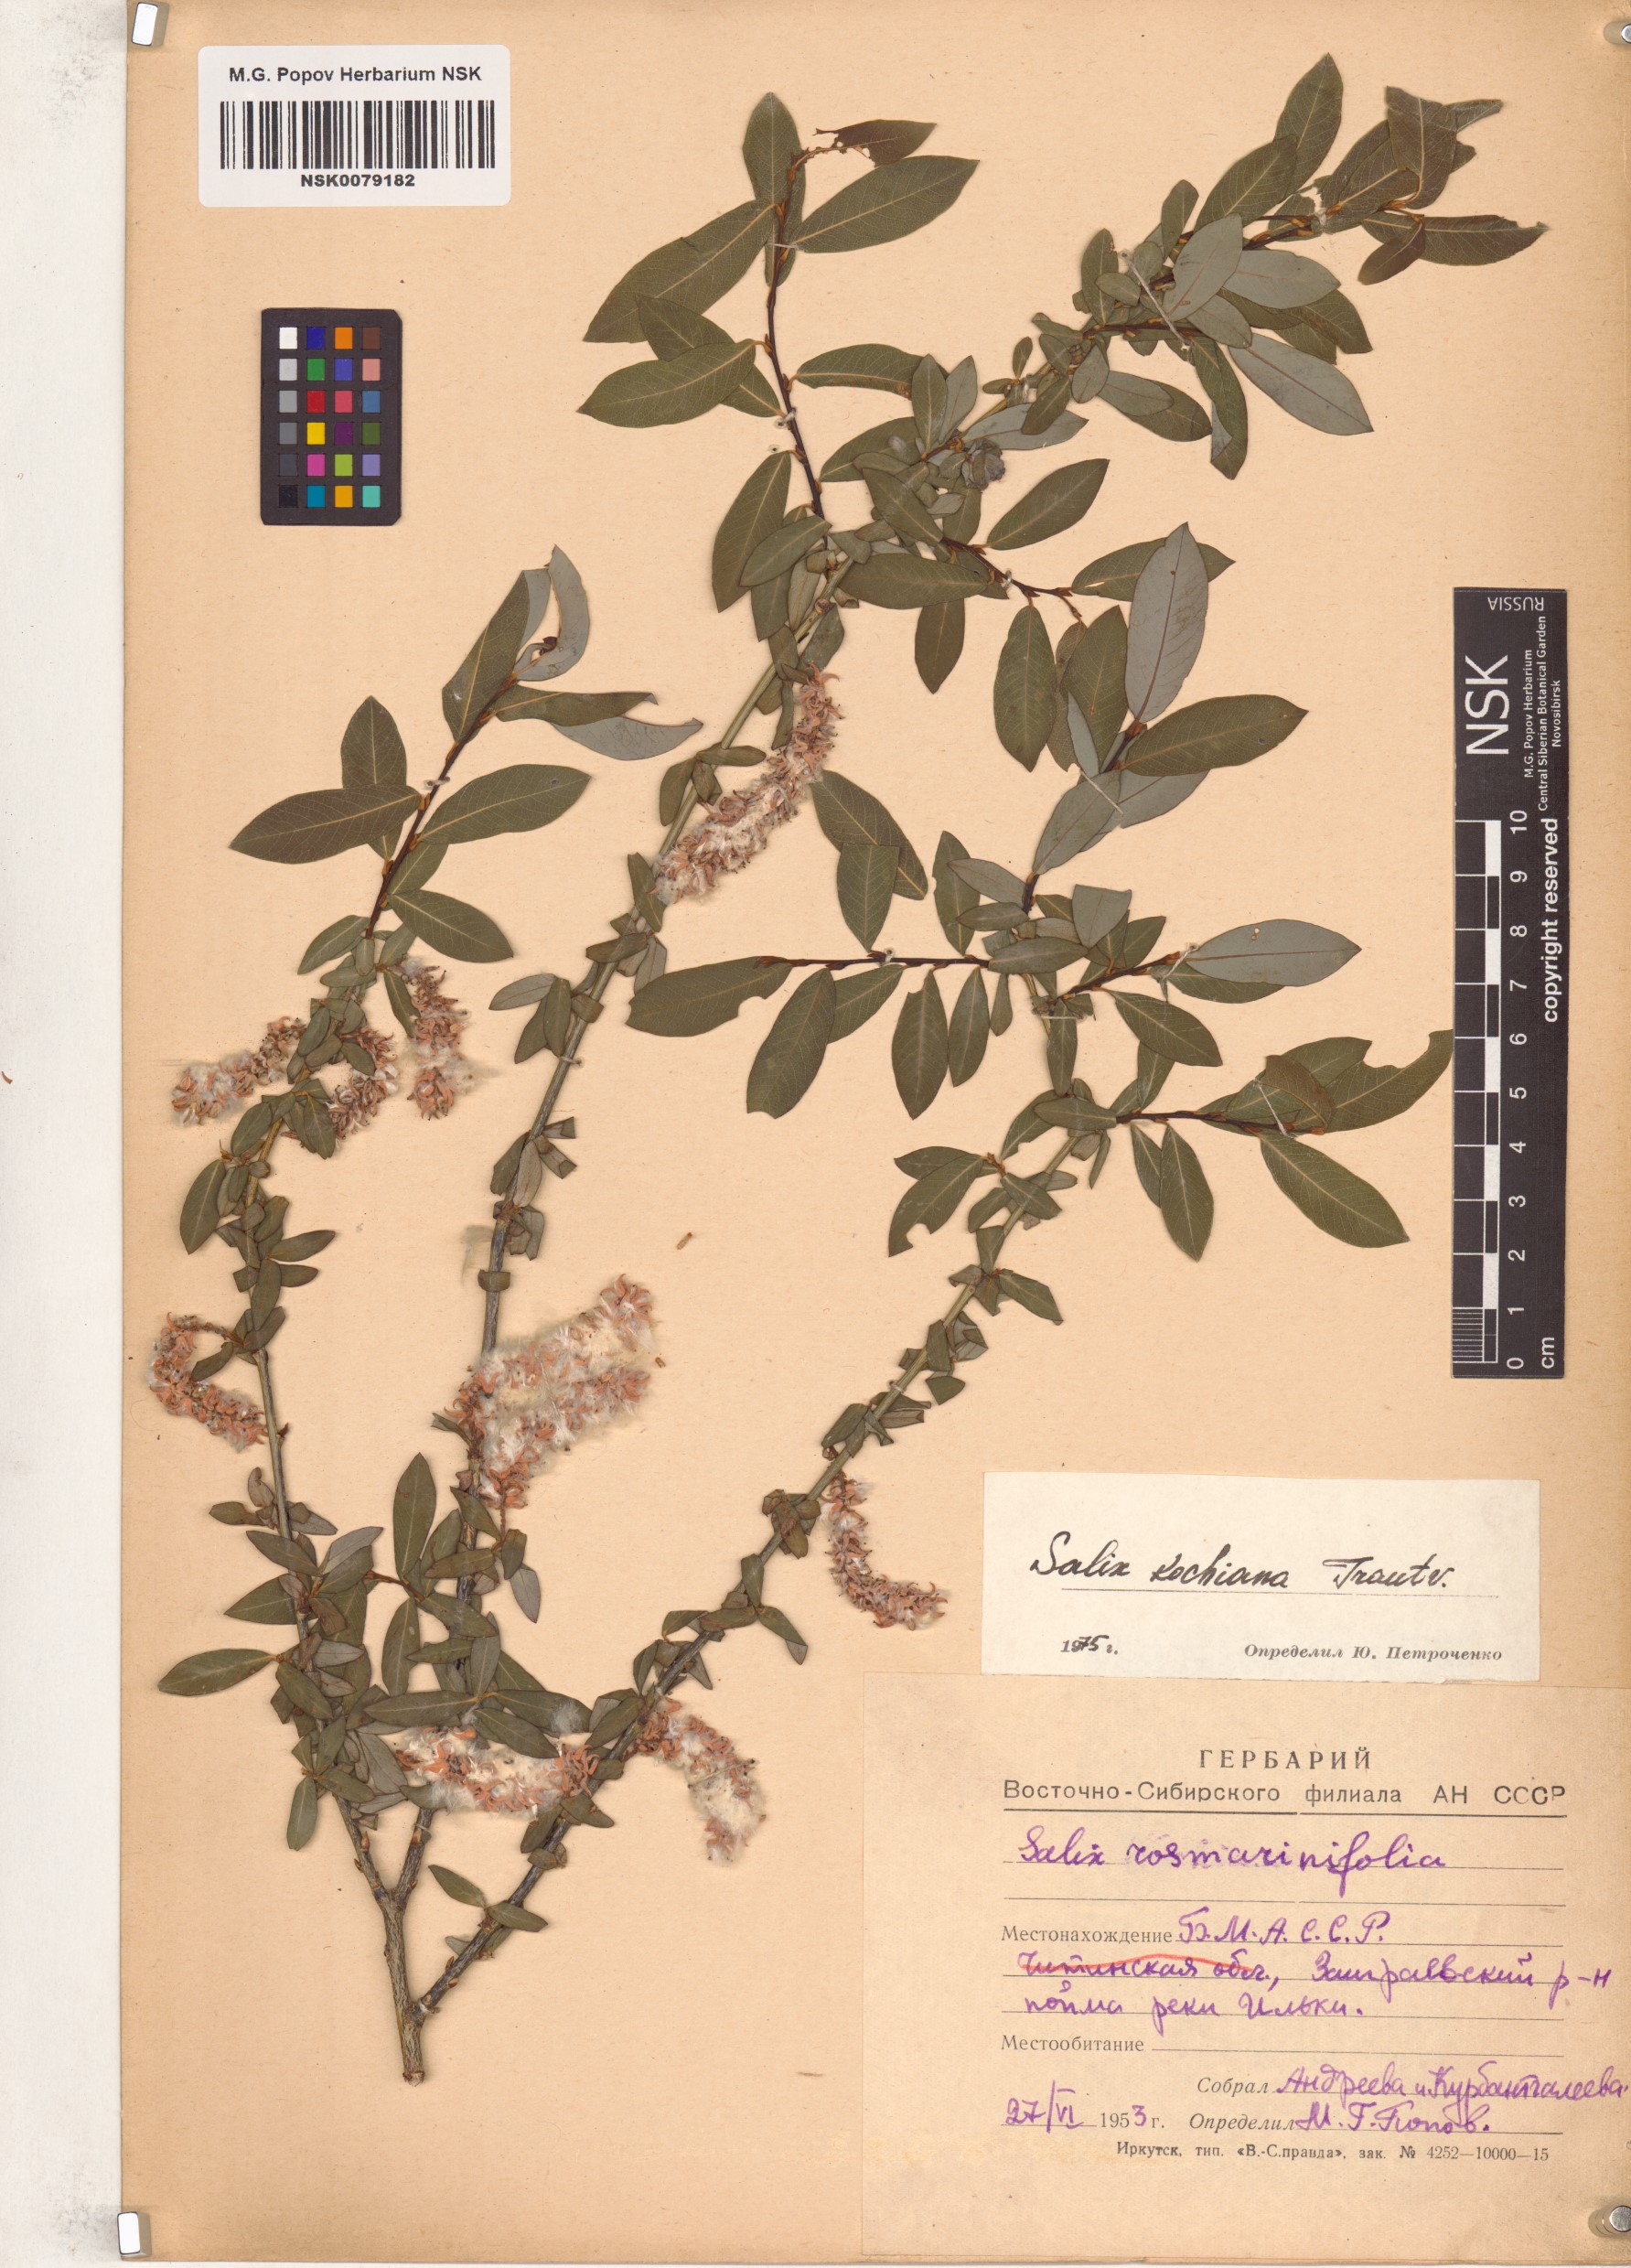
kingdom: Plantae
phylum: Tracheophyta
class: Magnoliopsida
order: Malpighiales
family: Salicaceae
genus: Salix
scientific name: Salix kochiana
